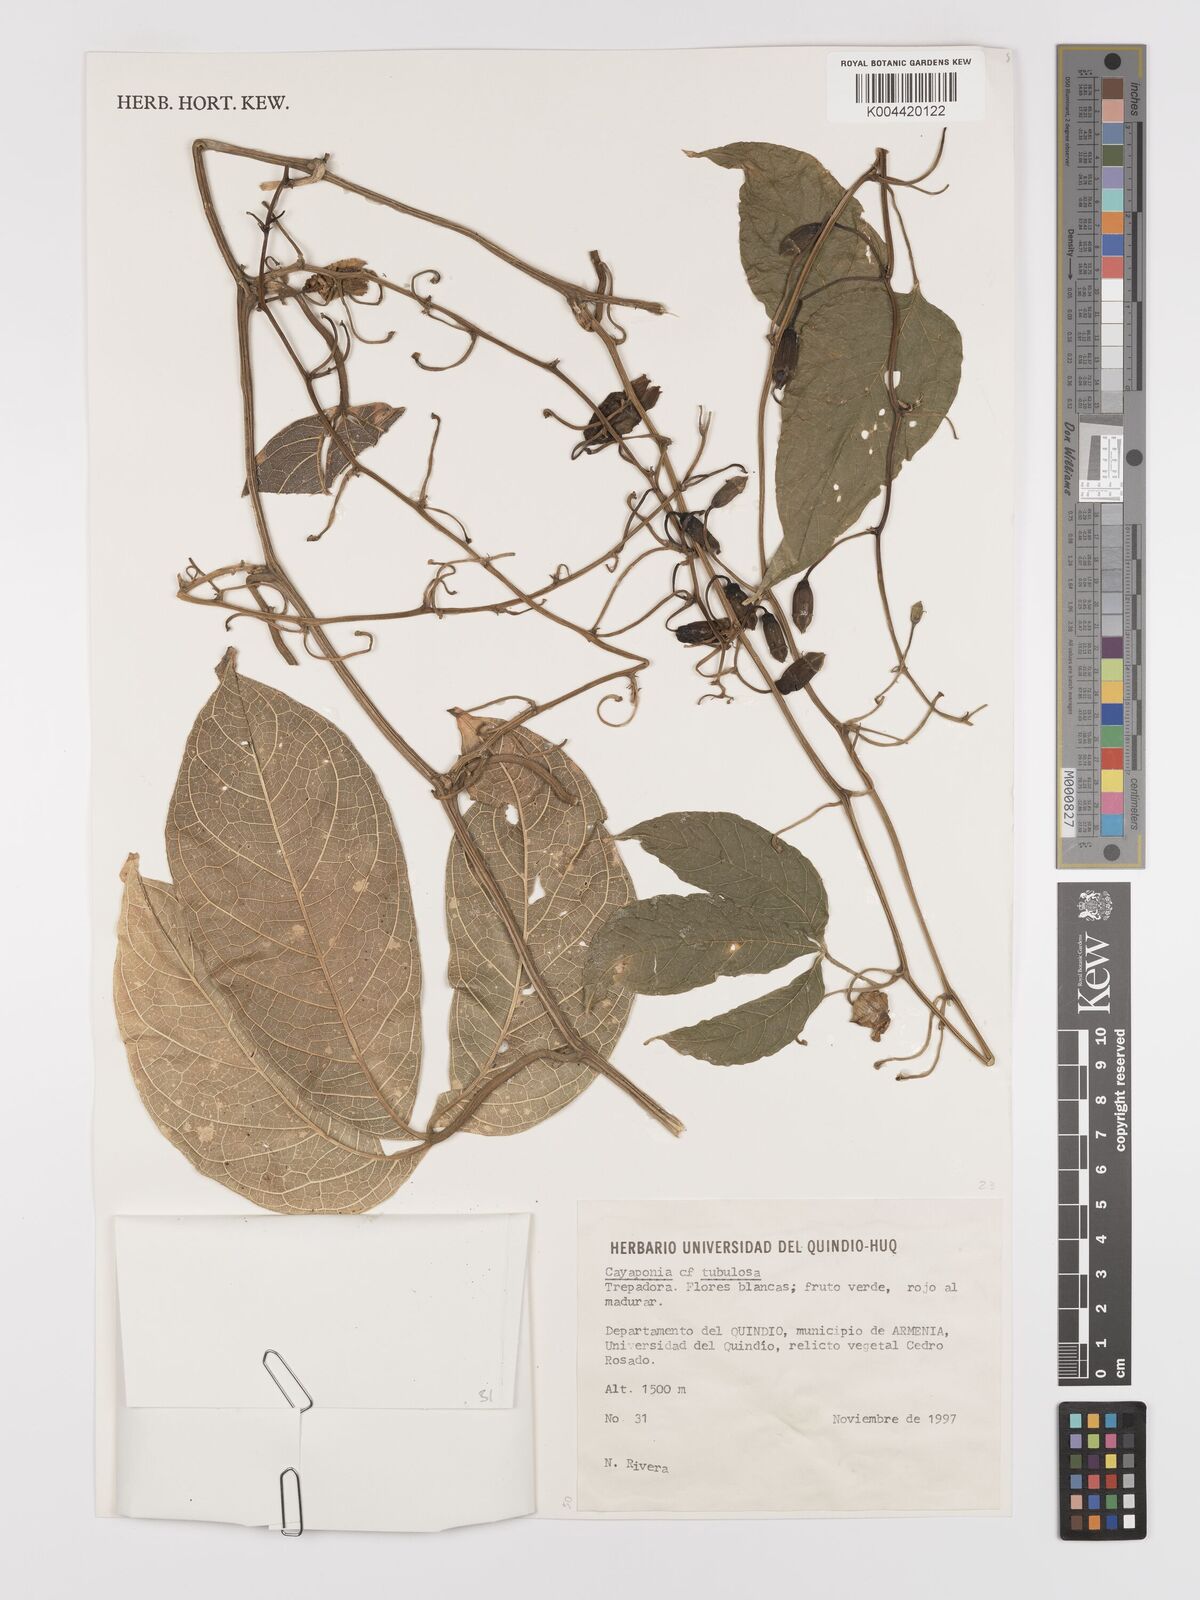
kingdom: Plantae
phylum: Tracheophyta
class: Magnoliopsida
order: Cucurbitales
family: Cucurbitaceae
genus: Cayaponia
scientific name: Cayaponia tubulosa
